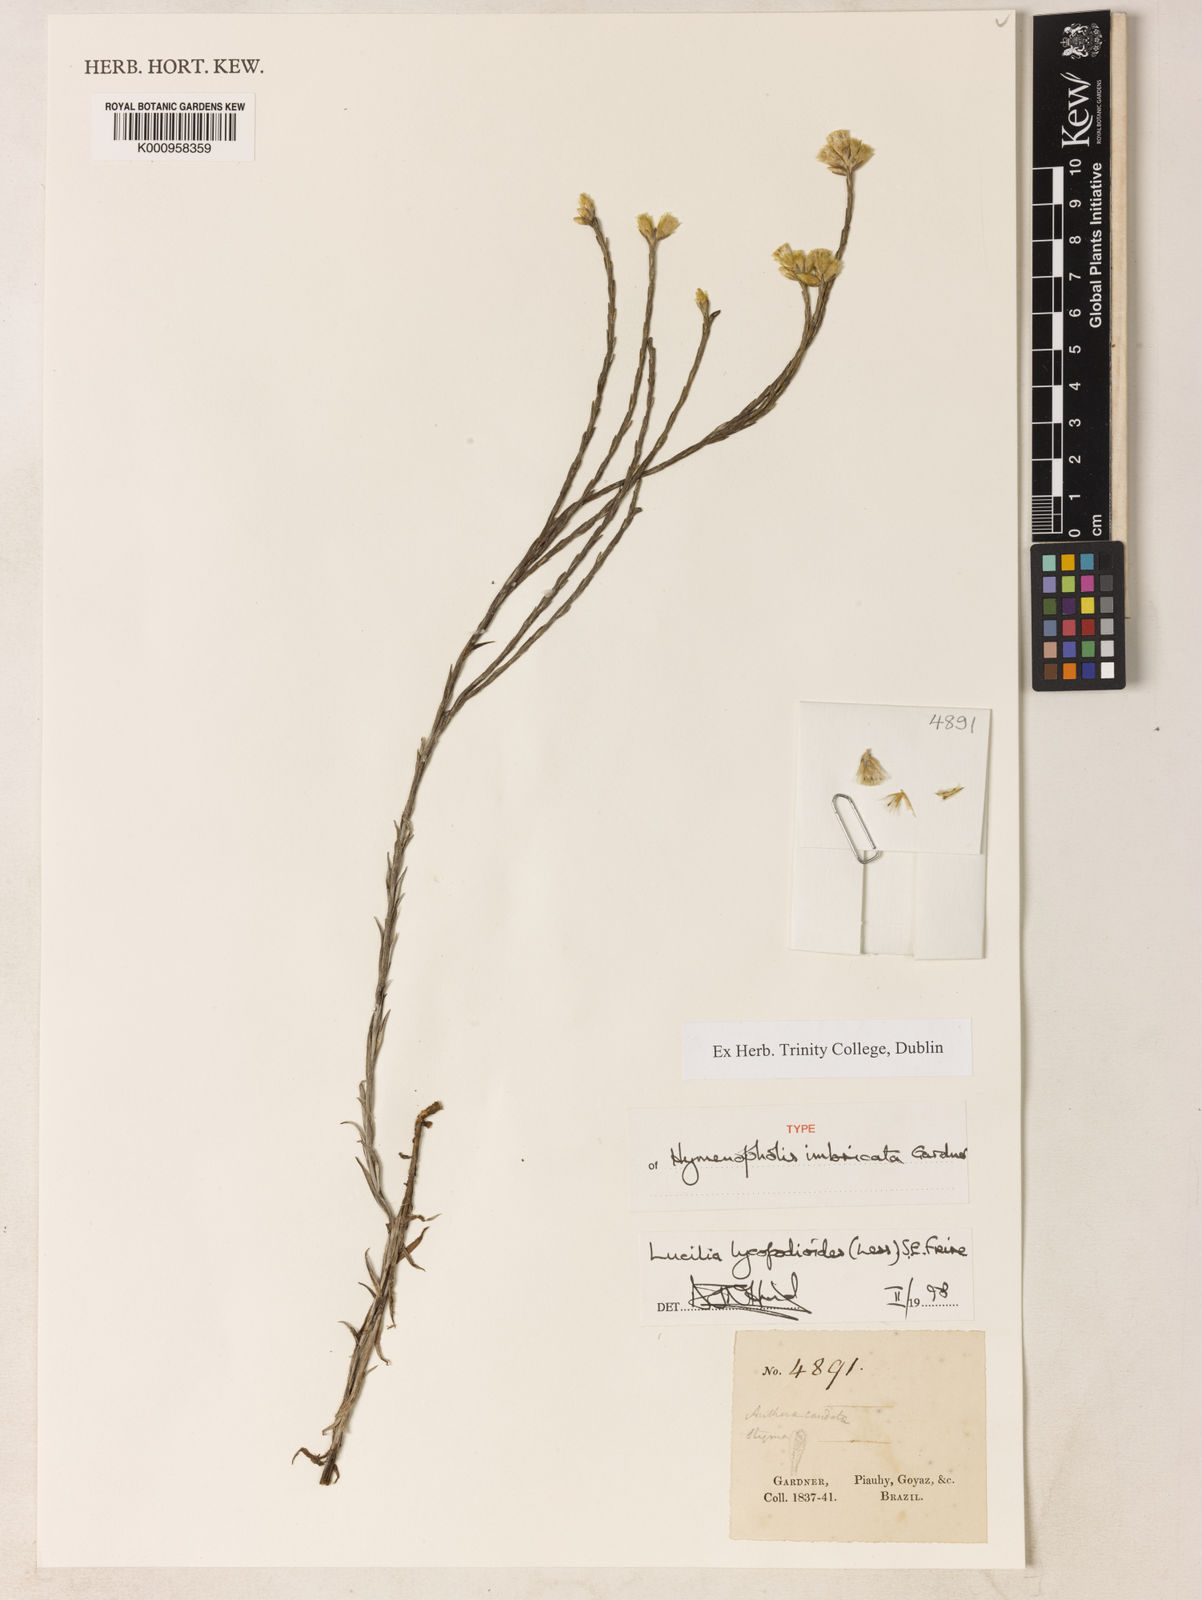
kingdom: Plantae
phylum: Tracheophyta
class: Magnoliopsida
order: Asterales
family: Asteraceae
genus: Lucilia
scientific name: Lucilia lycopodioides
